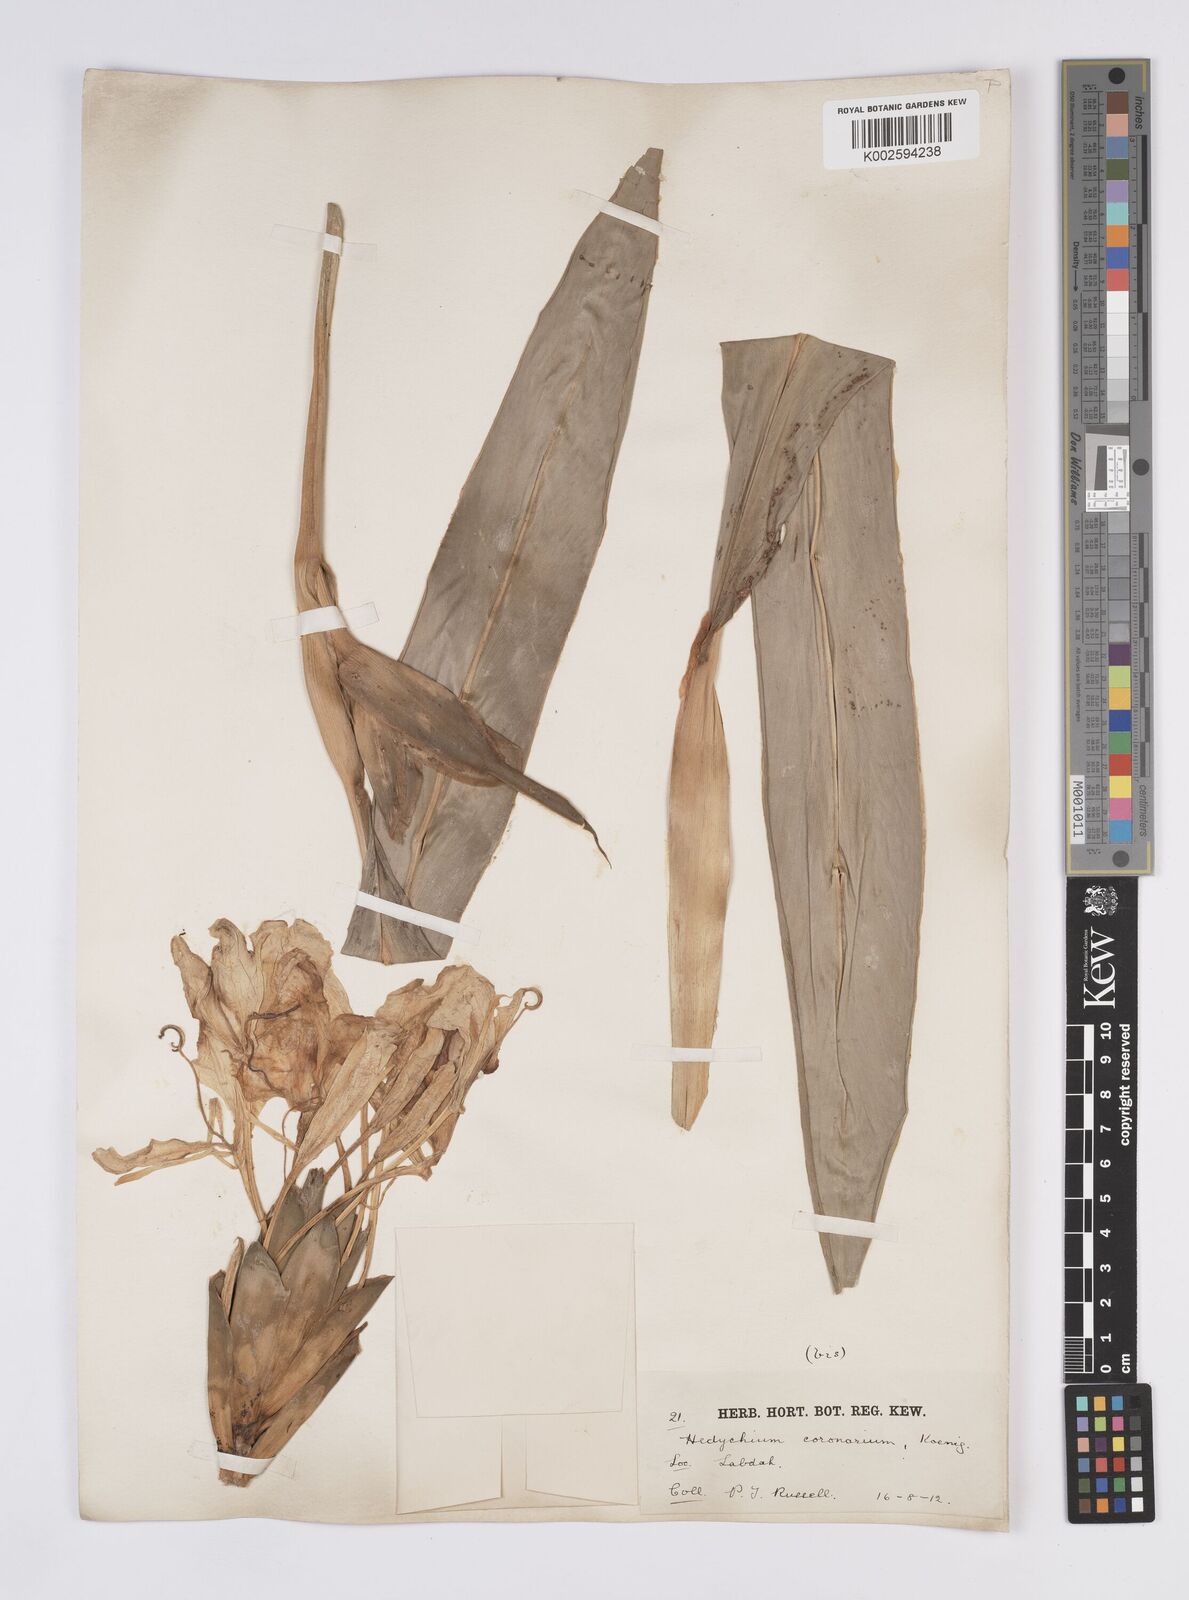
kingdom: Plantae
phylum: Tracheophyta
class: Liliopsida
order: Zingiberales
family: Zingiberaceae
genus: Hedychium
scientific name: Hedychium coronarium
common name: White garland-lily
